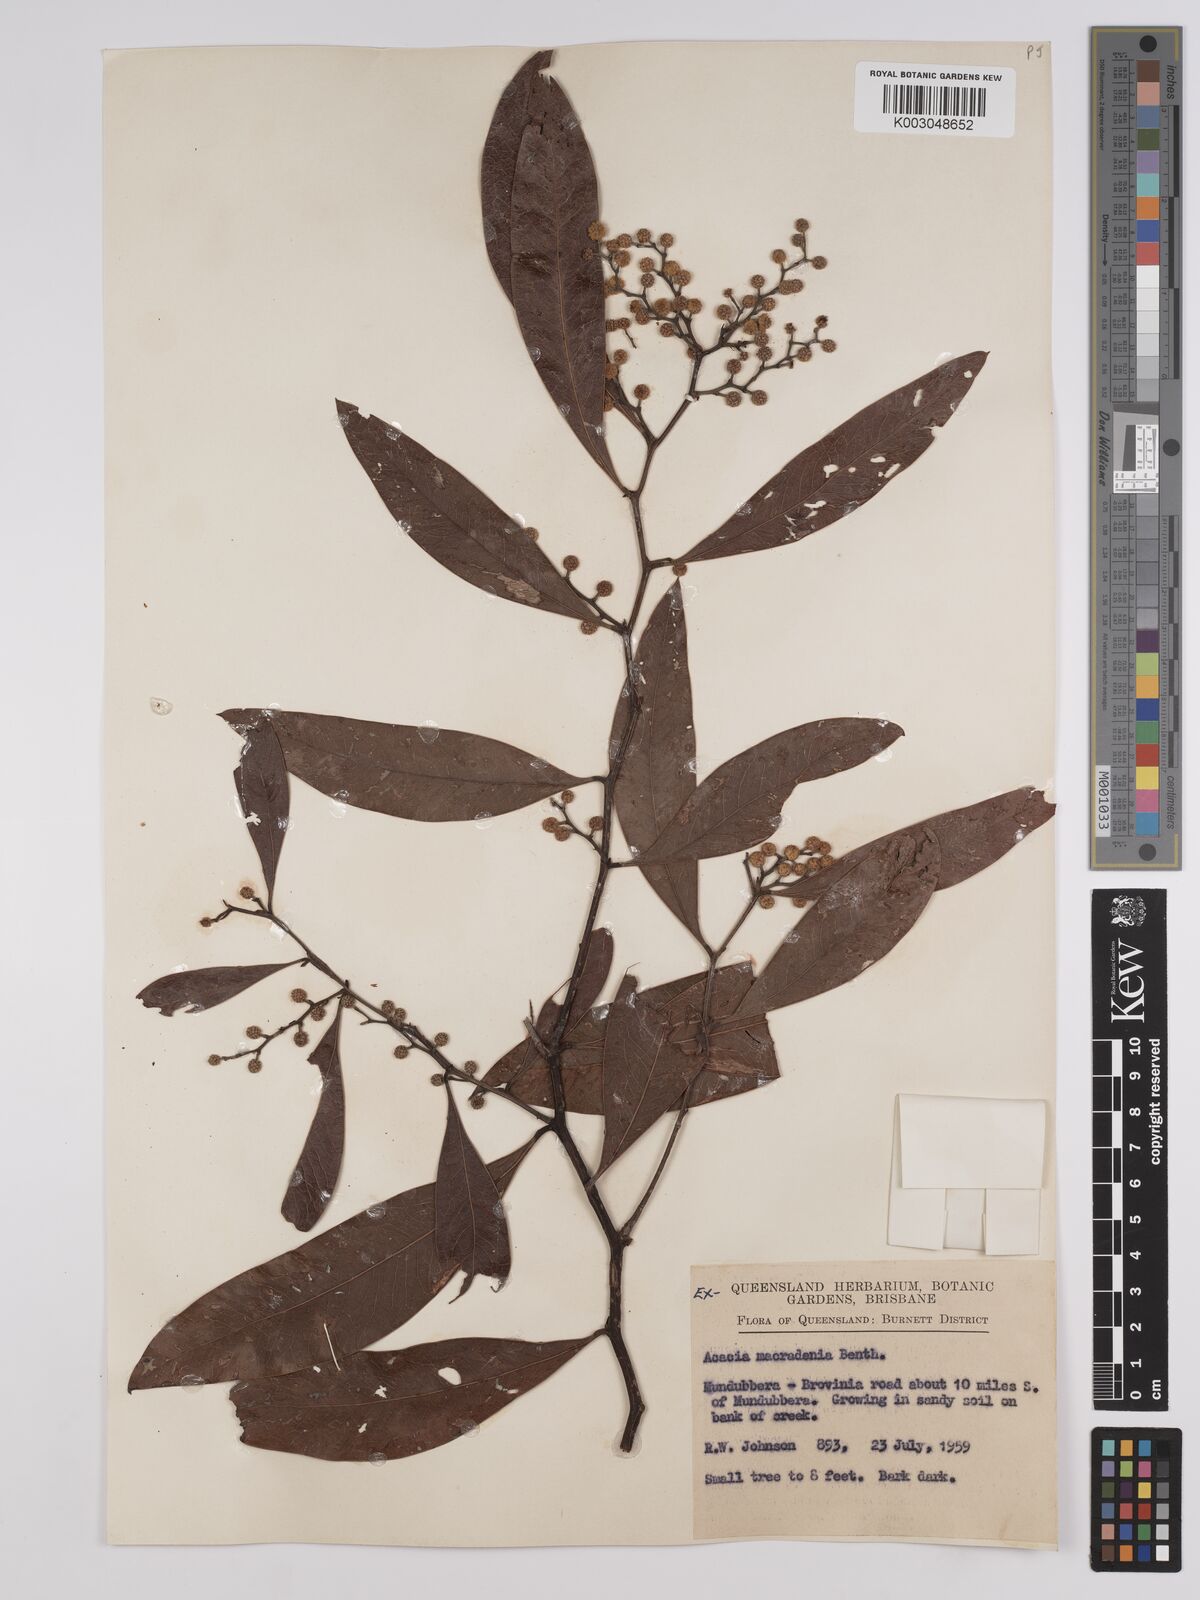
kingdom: Plantae
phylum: Tracheophyta
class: Magnoliopsida
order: Fabales
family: Fabaceae
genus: Acacia
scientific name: Acacia macradenia
